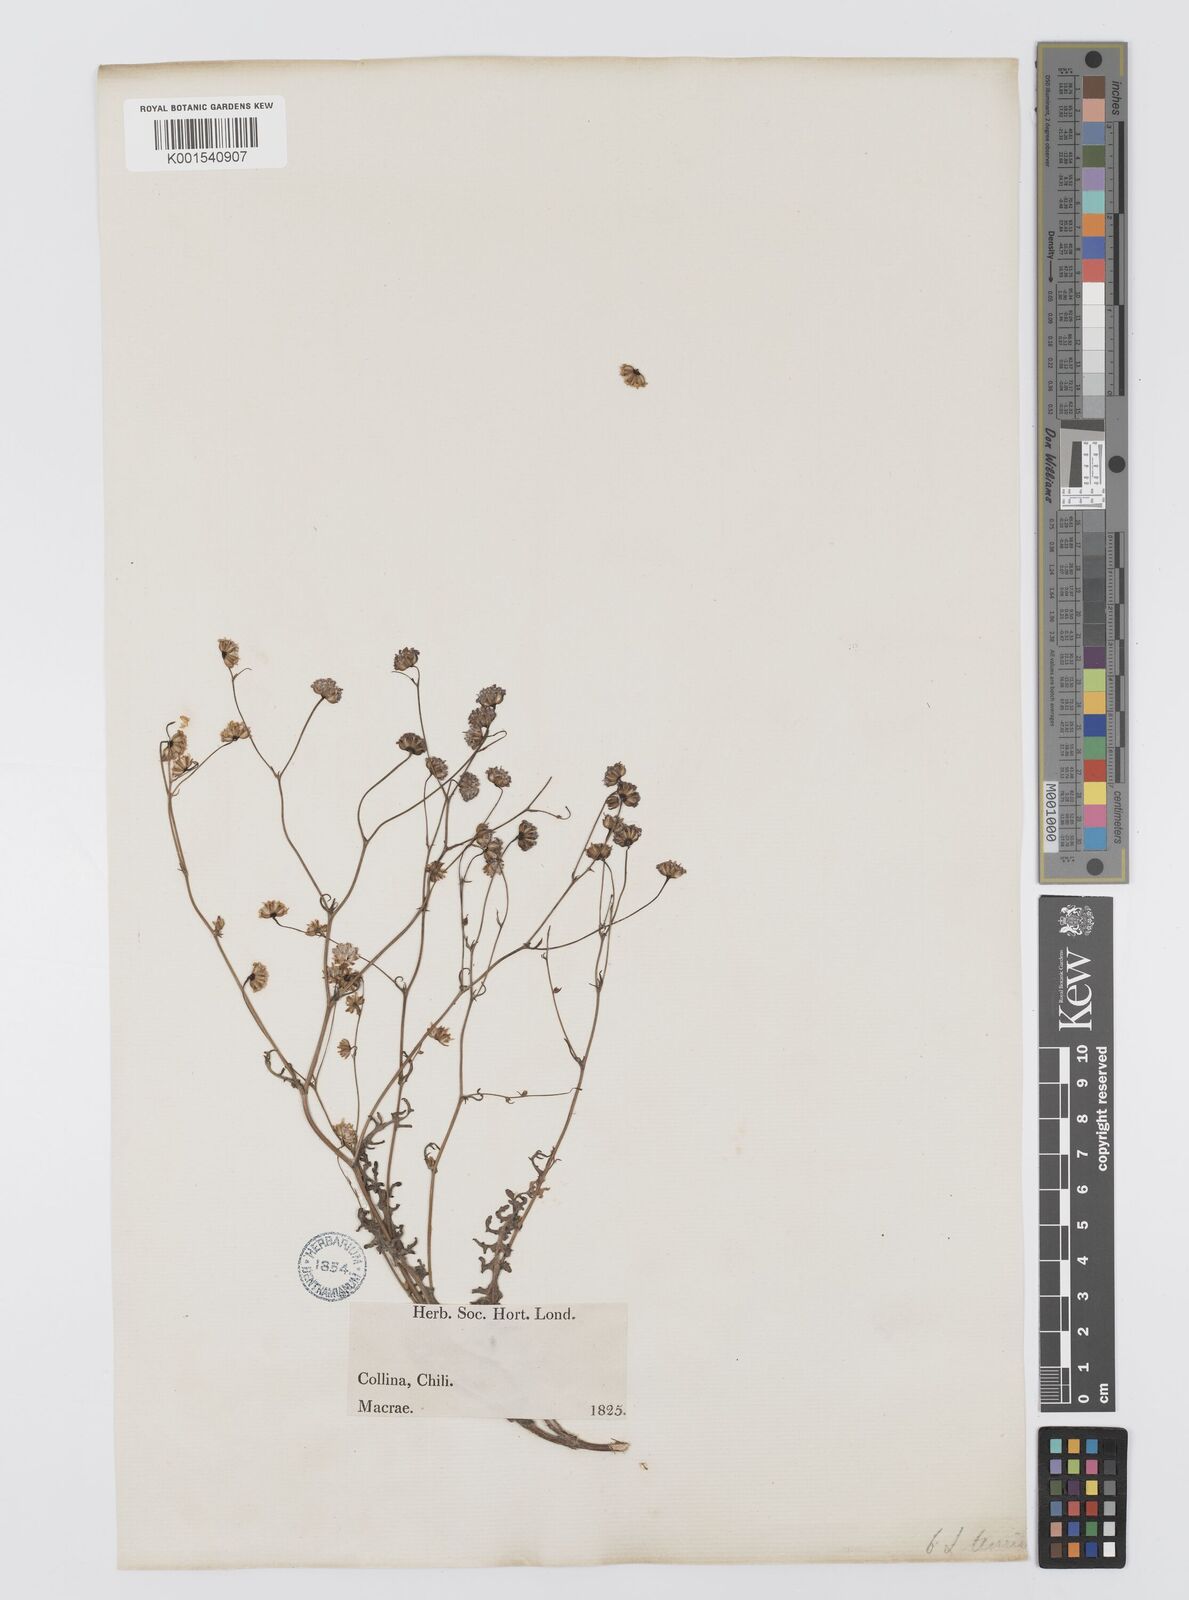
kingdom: Plantae
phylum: Tracheophyta
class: Magnoliopsida
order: Asterales
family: Asteraceae
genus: Leucheria
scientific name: Leucheria tenuis
